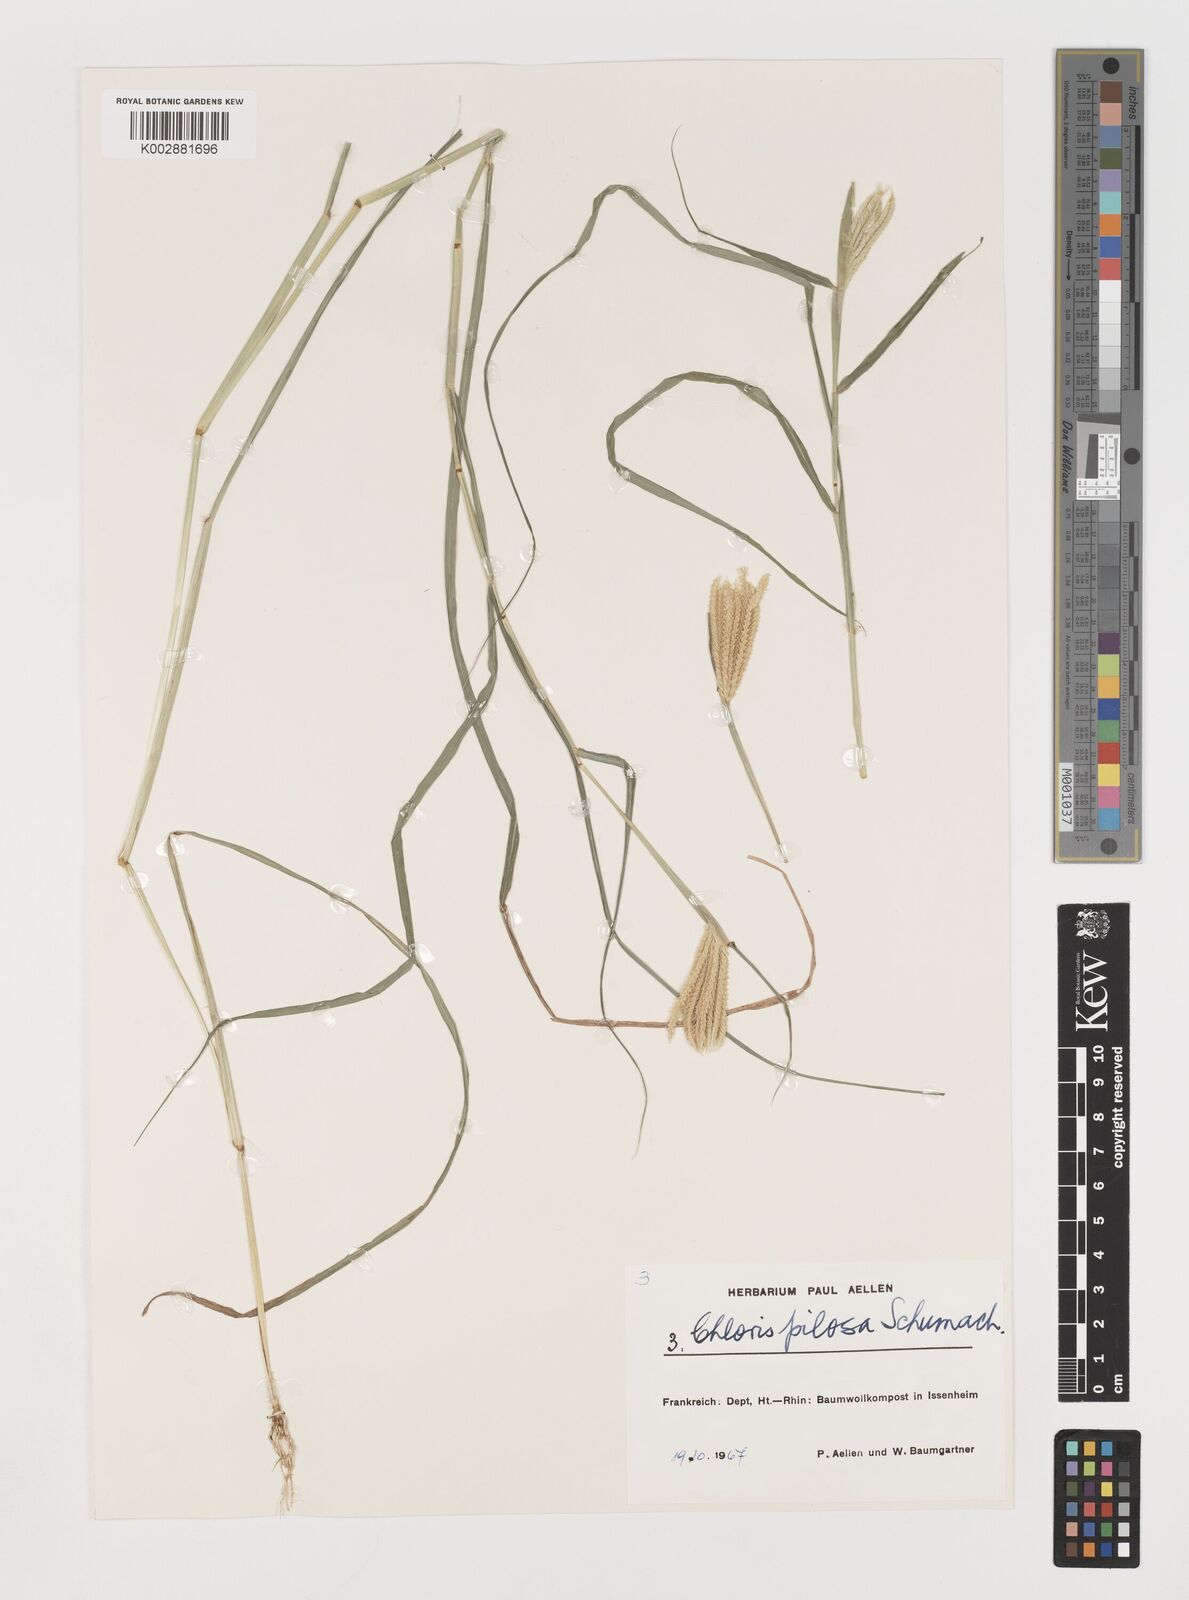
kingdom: Plantae
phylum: Tracheophyta
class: Liliopsida
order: Poales
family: Poaceae
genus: Chloris
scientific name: Chloris pilosa
